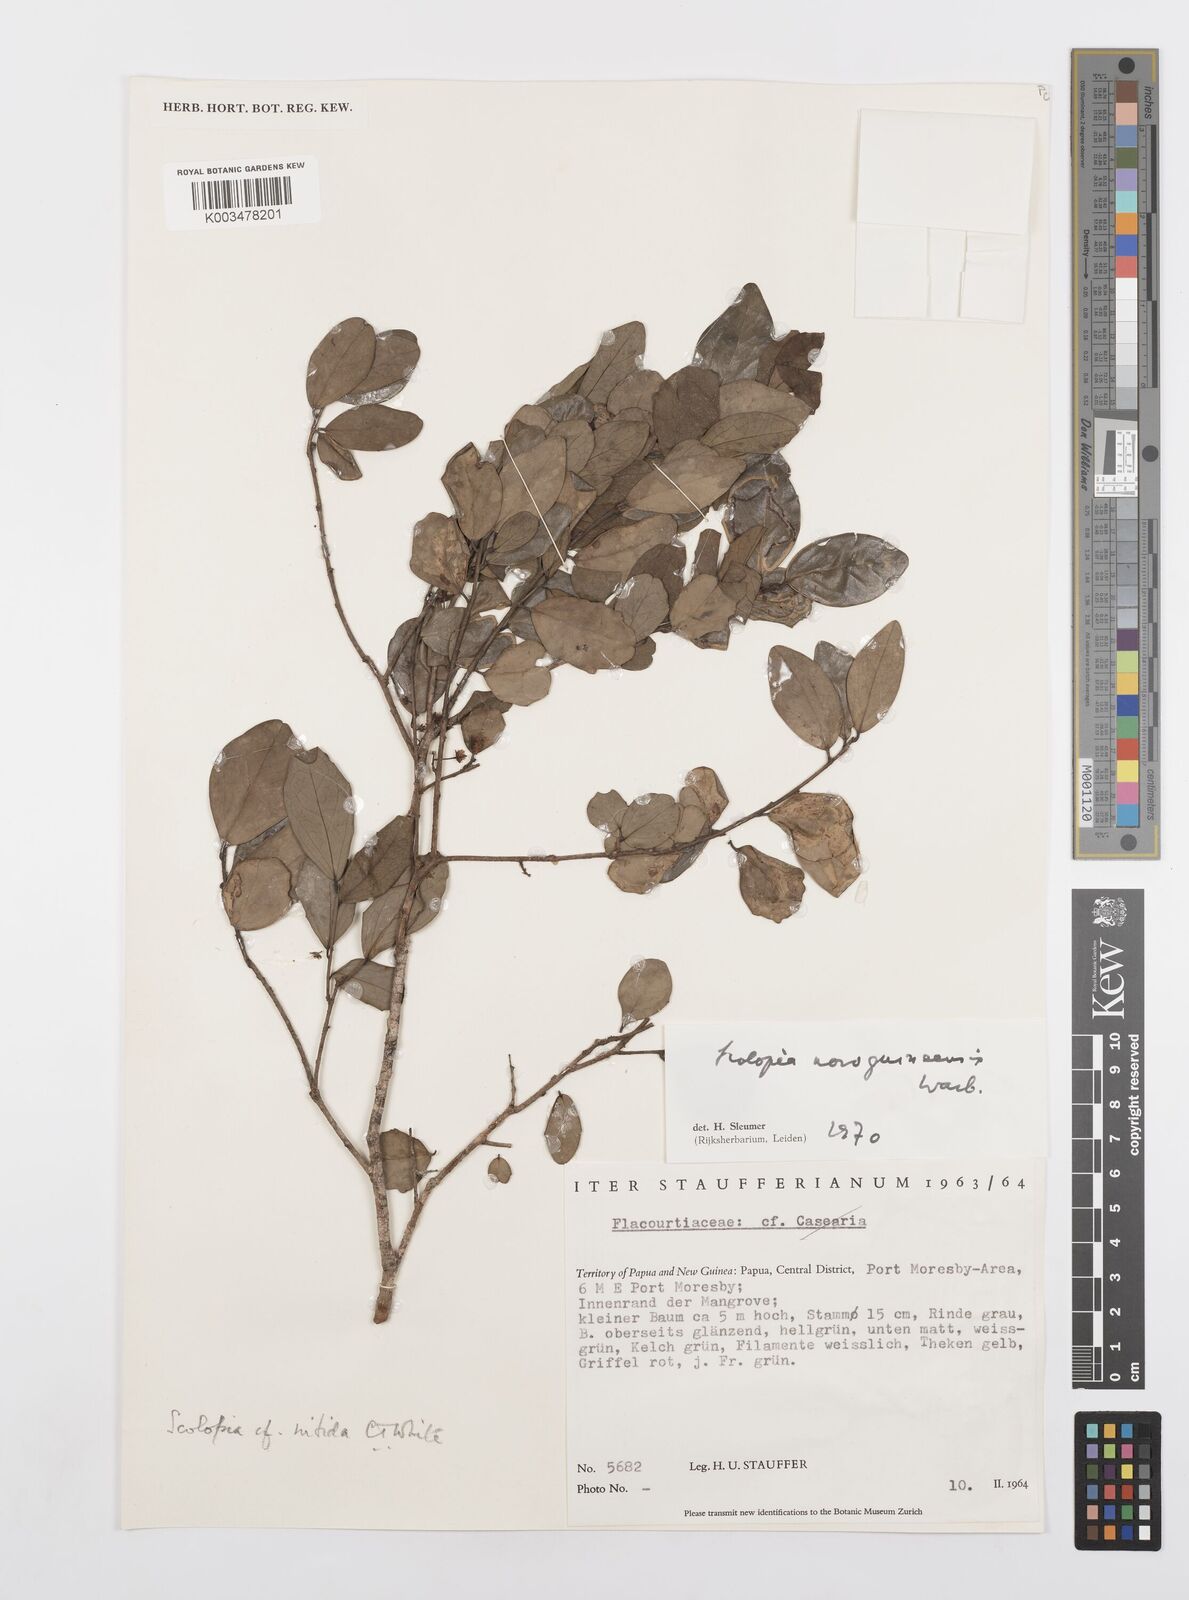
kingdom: Plantae
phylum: Tracheophyta
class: Magnoliopsida
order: Malpighiales
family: Salicaceae
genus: Scolopia
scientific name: Scolopia novoguineensis
